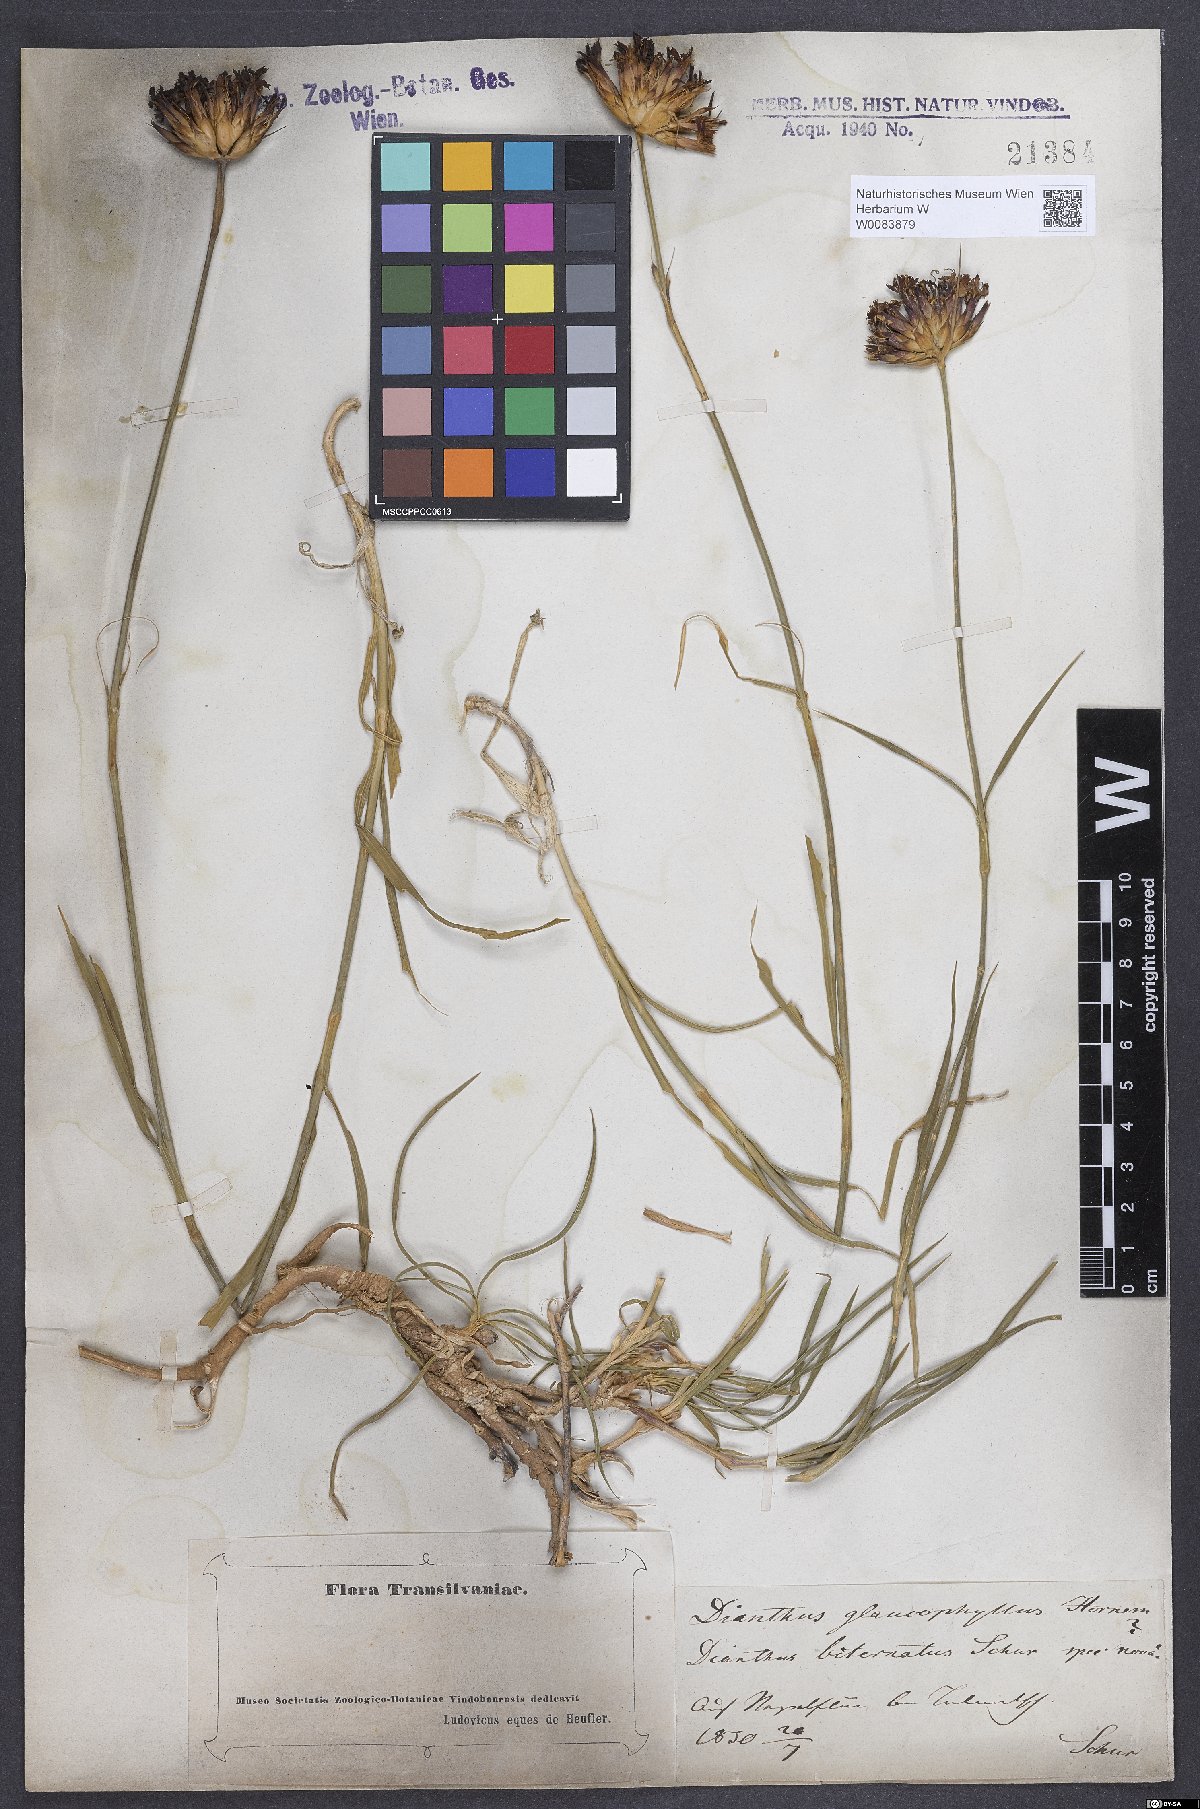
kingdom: Plantae
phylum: Tracheophyta
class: Magnoliopsida
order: Caryophyllales
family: Caryophyllaceae
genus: Dianthus
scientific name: Dianthus balbisii
